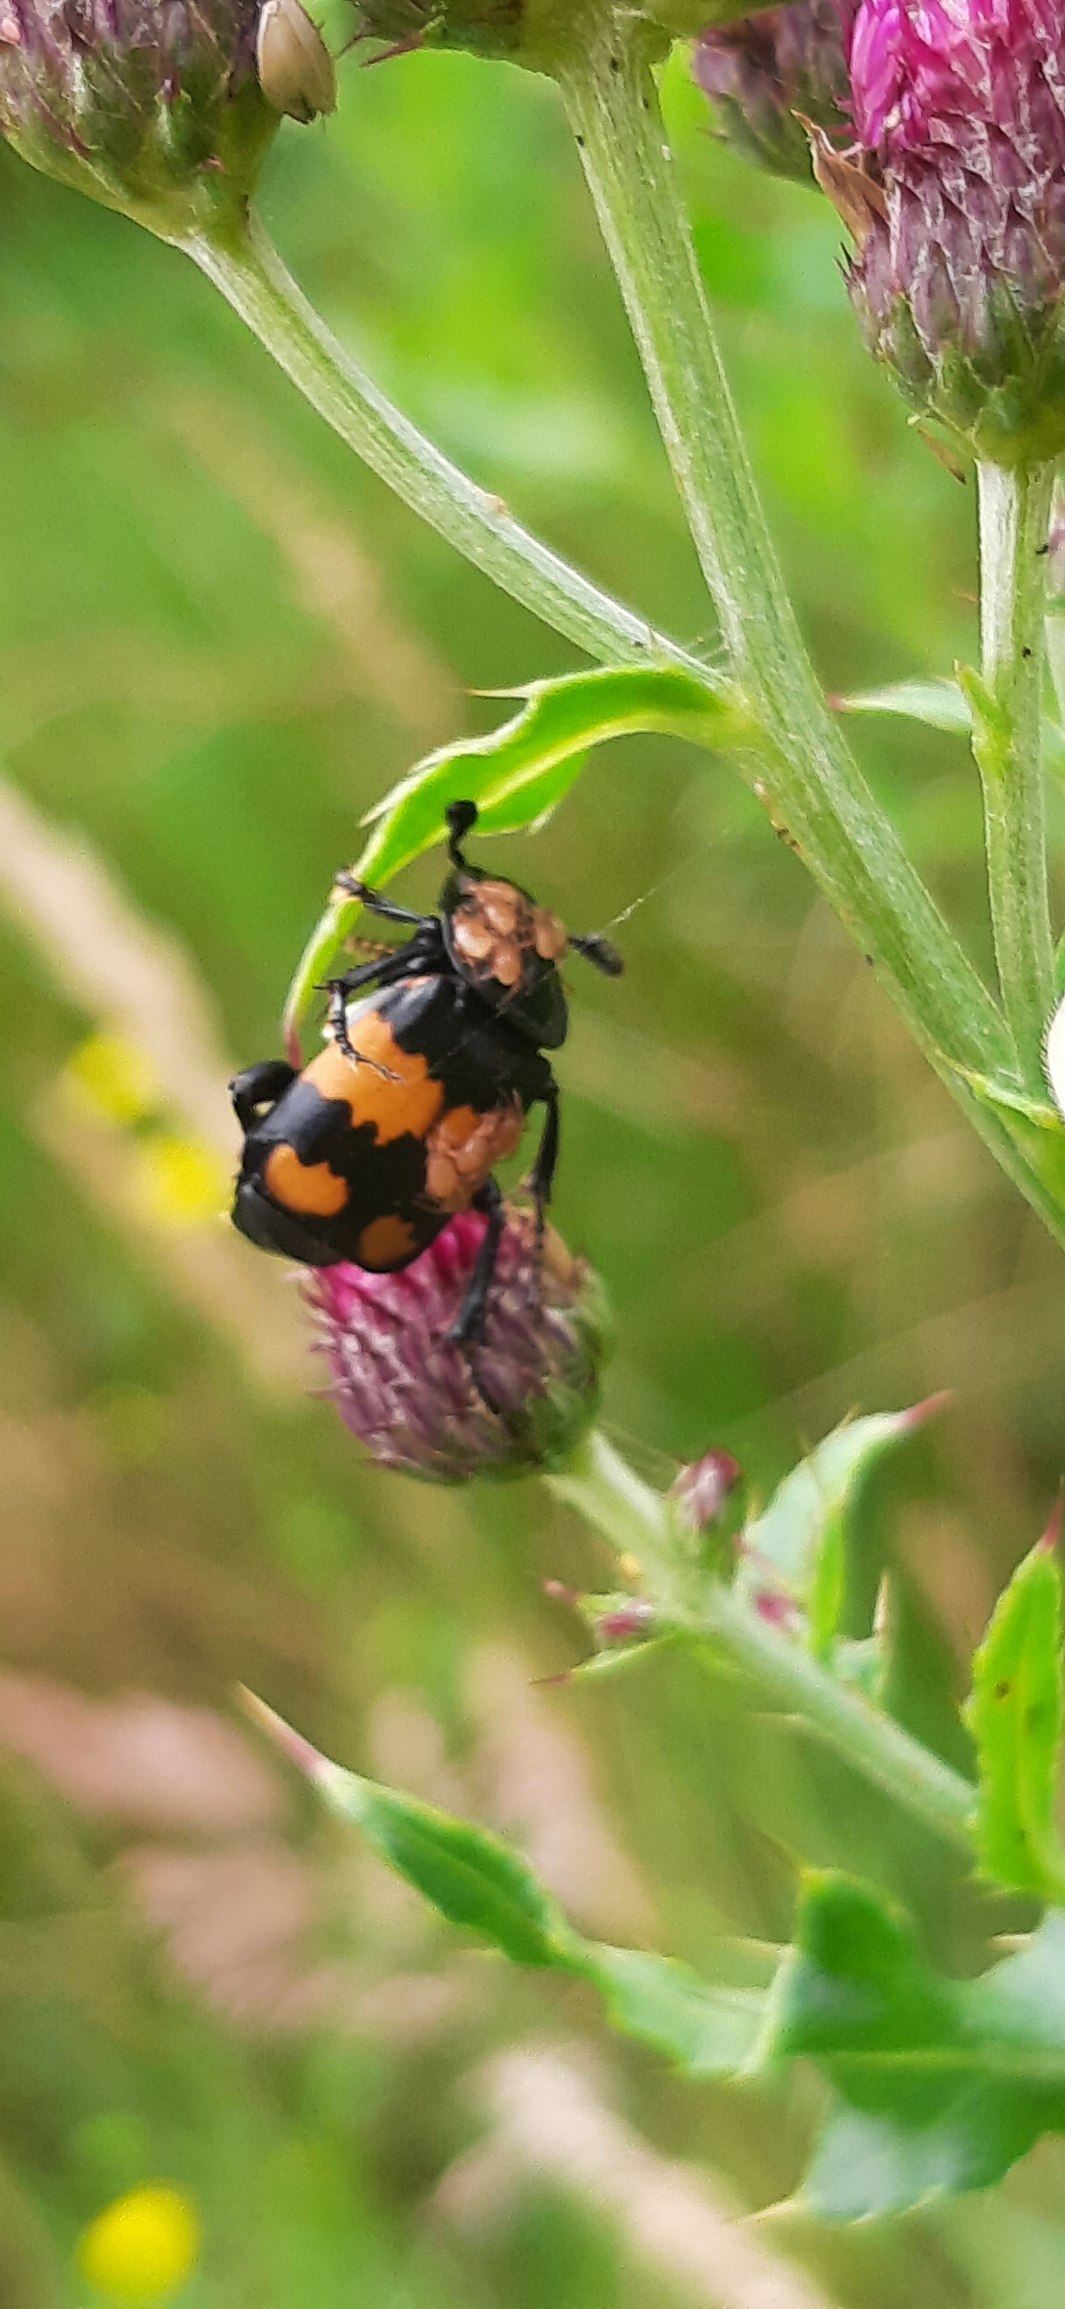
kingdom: Animalia
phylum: Arthropoda
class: Insecta
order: Coleoptera
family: Staphylinidae
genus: Nicrophorus
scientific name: Nicrophorus vespilloides
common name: Sortkøllet ådselgraver
